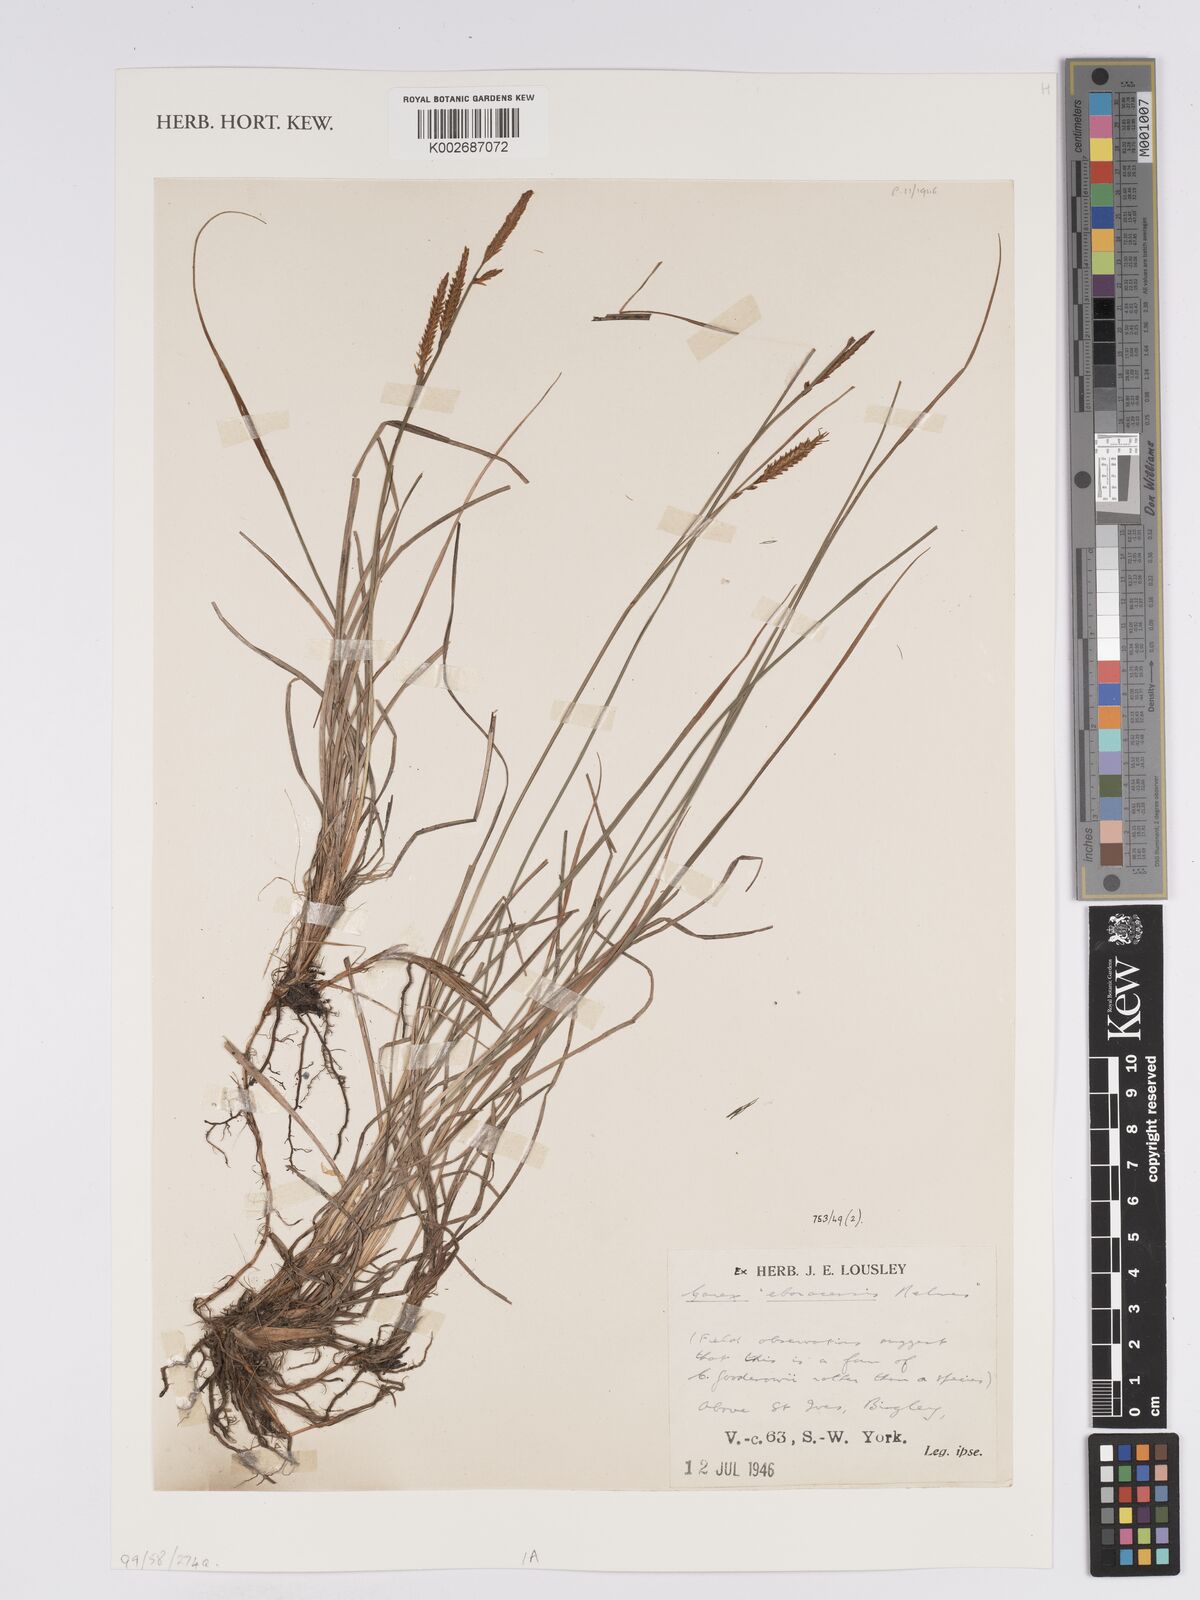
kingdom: Plantae
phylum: Tracheophyta
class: Liliopsida
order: Poales
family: Cyperaceae
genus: Carex
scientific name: Carex nigra
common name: Common sedge
